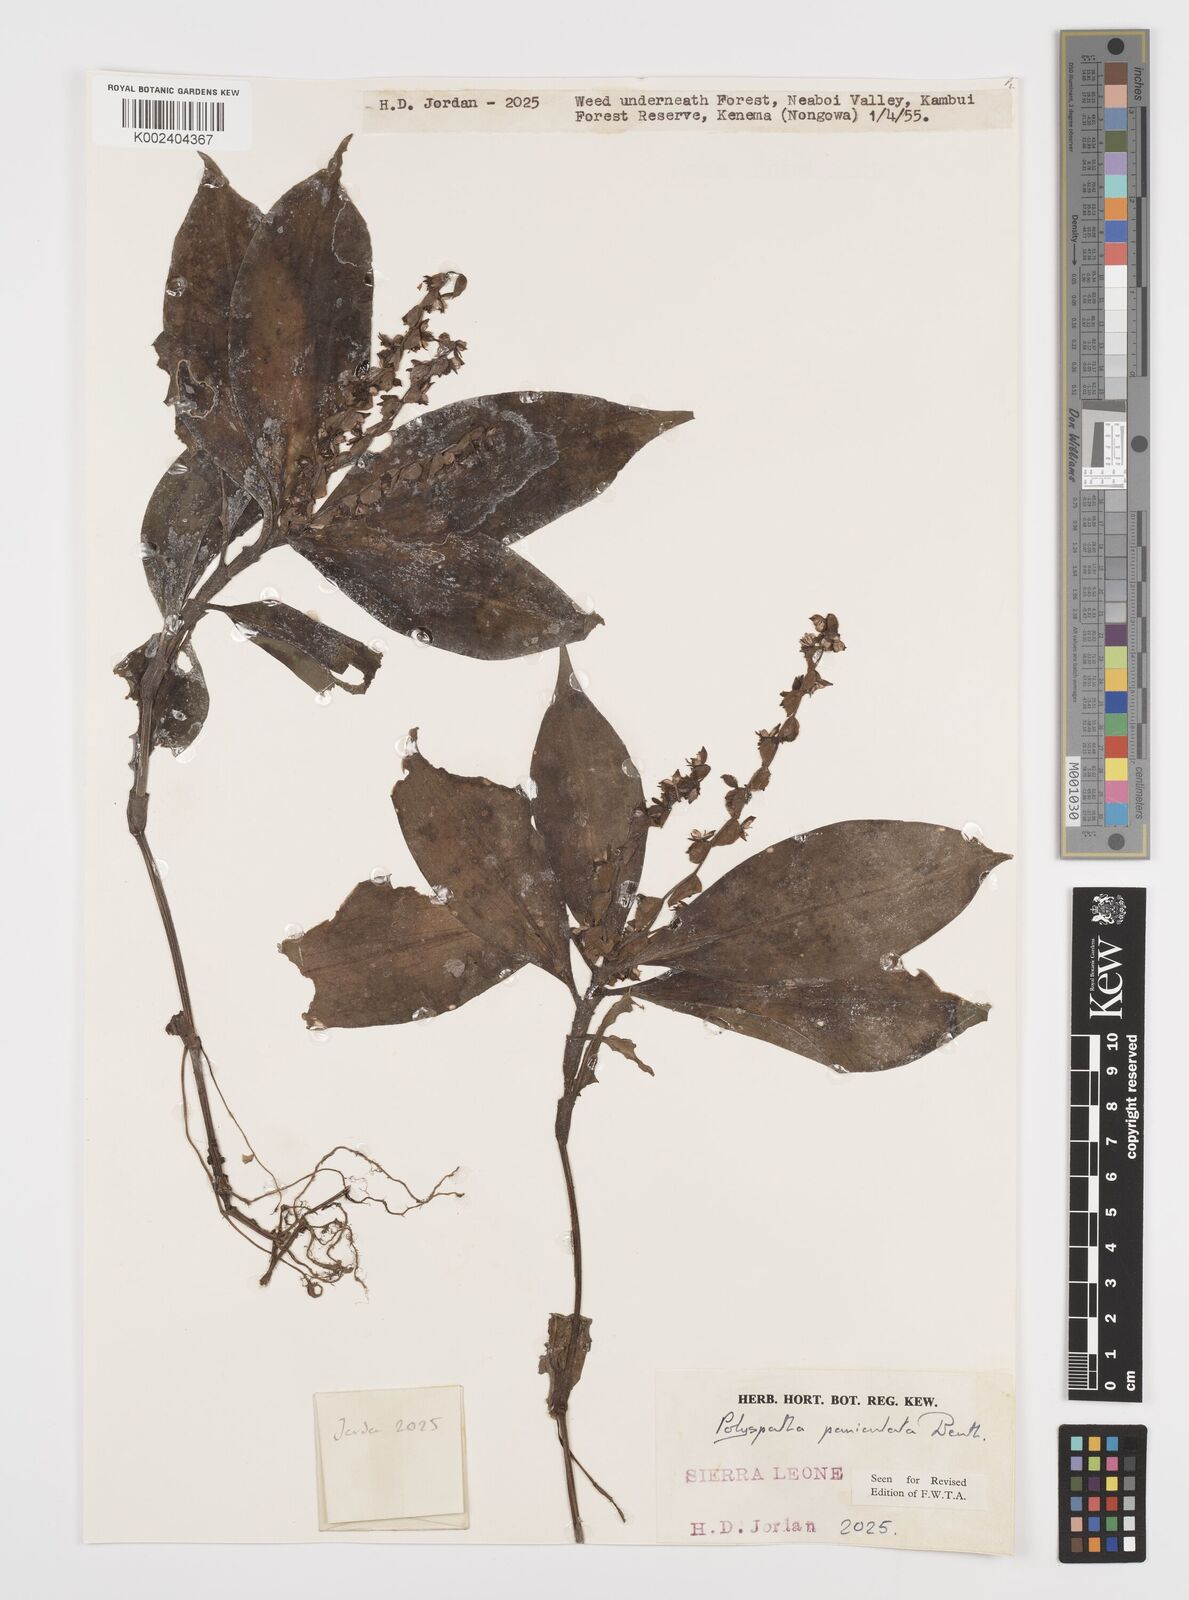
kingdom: Plantae
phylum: Tracheophyta
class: Liliopsida
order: Commelinales
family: Commelinaceae
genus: Polyspatha
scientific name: Polyspatha paniculata
